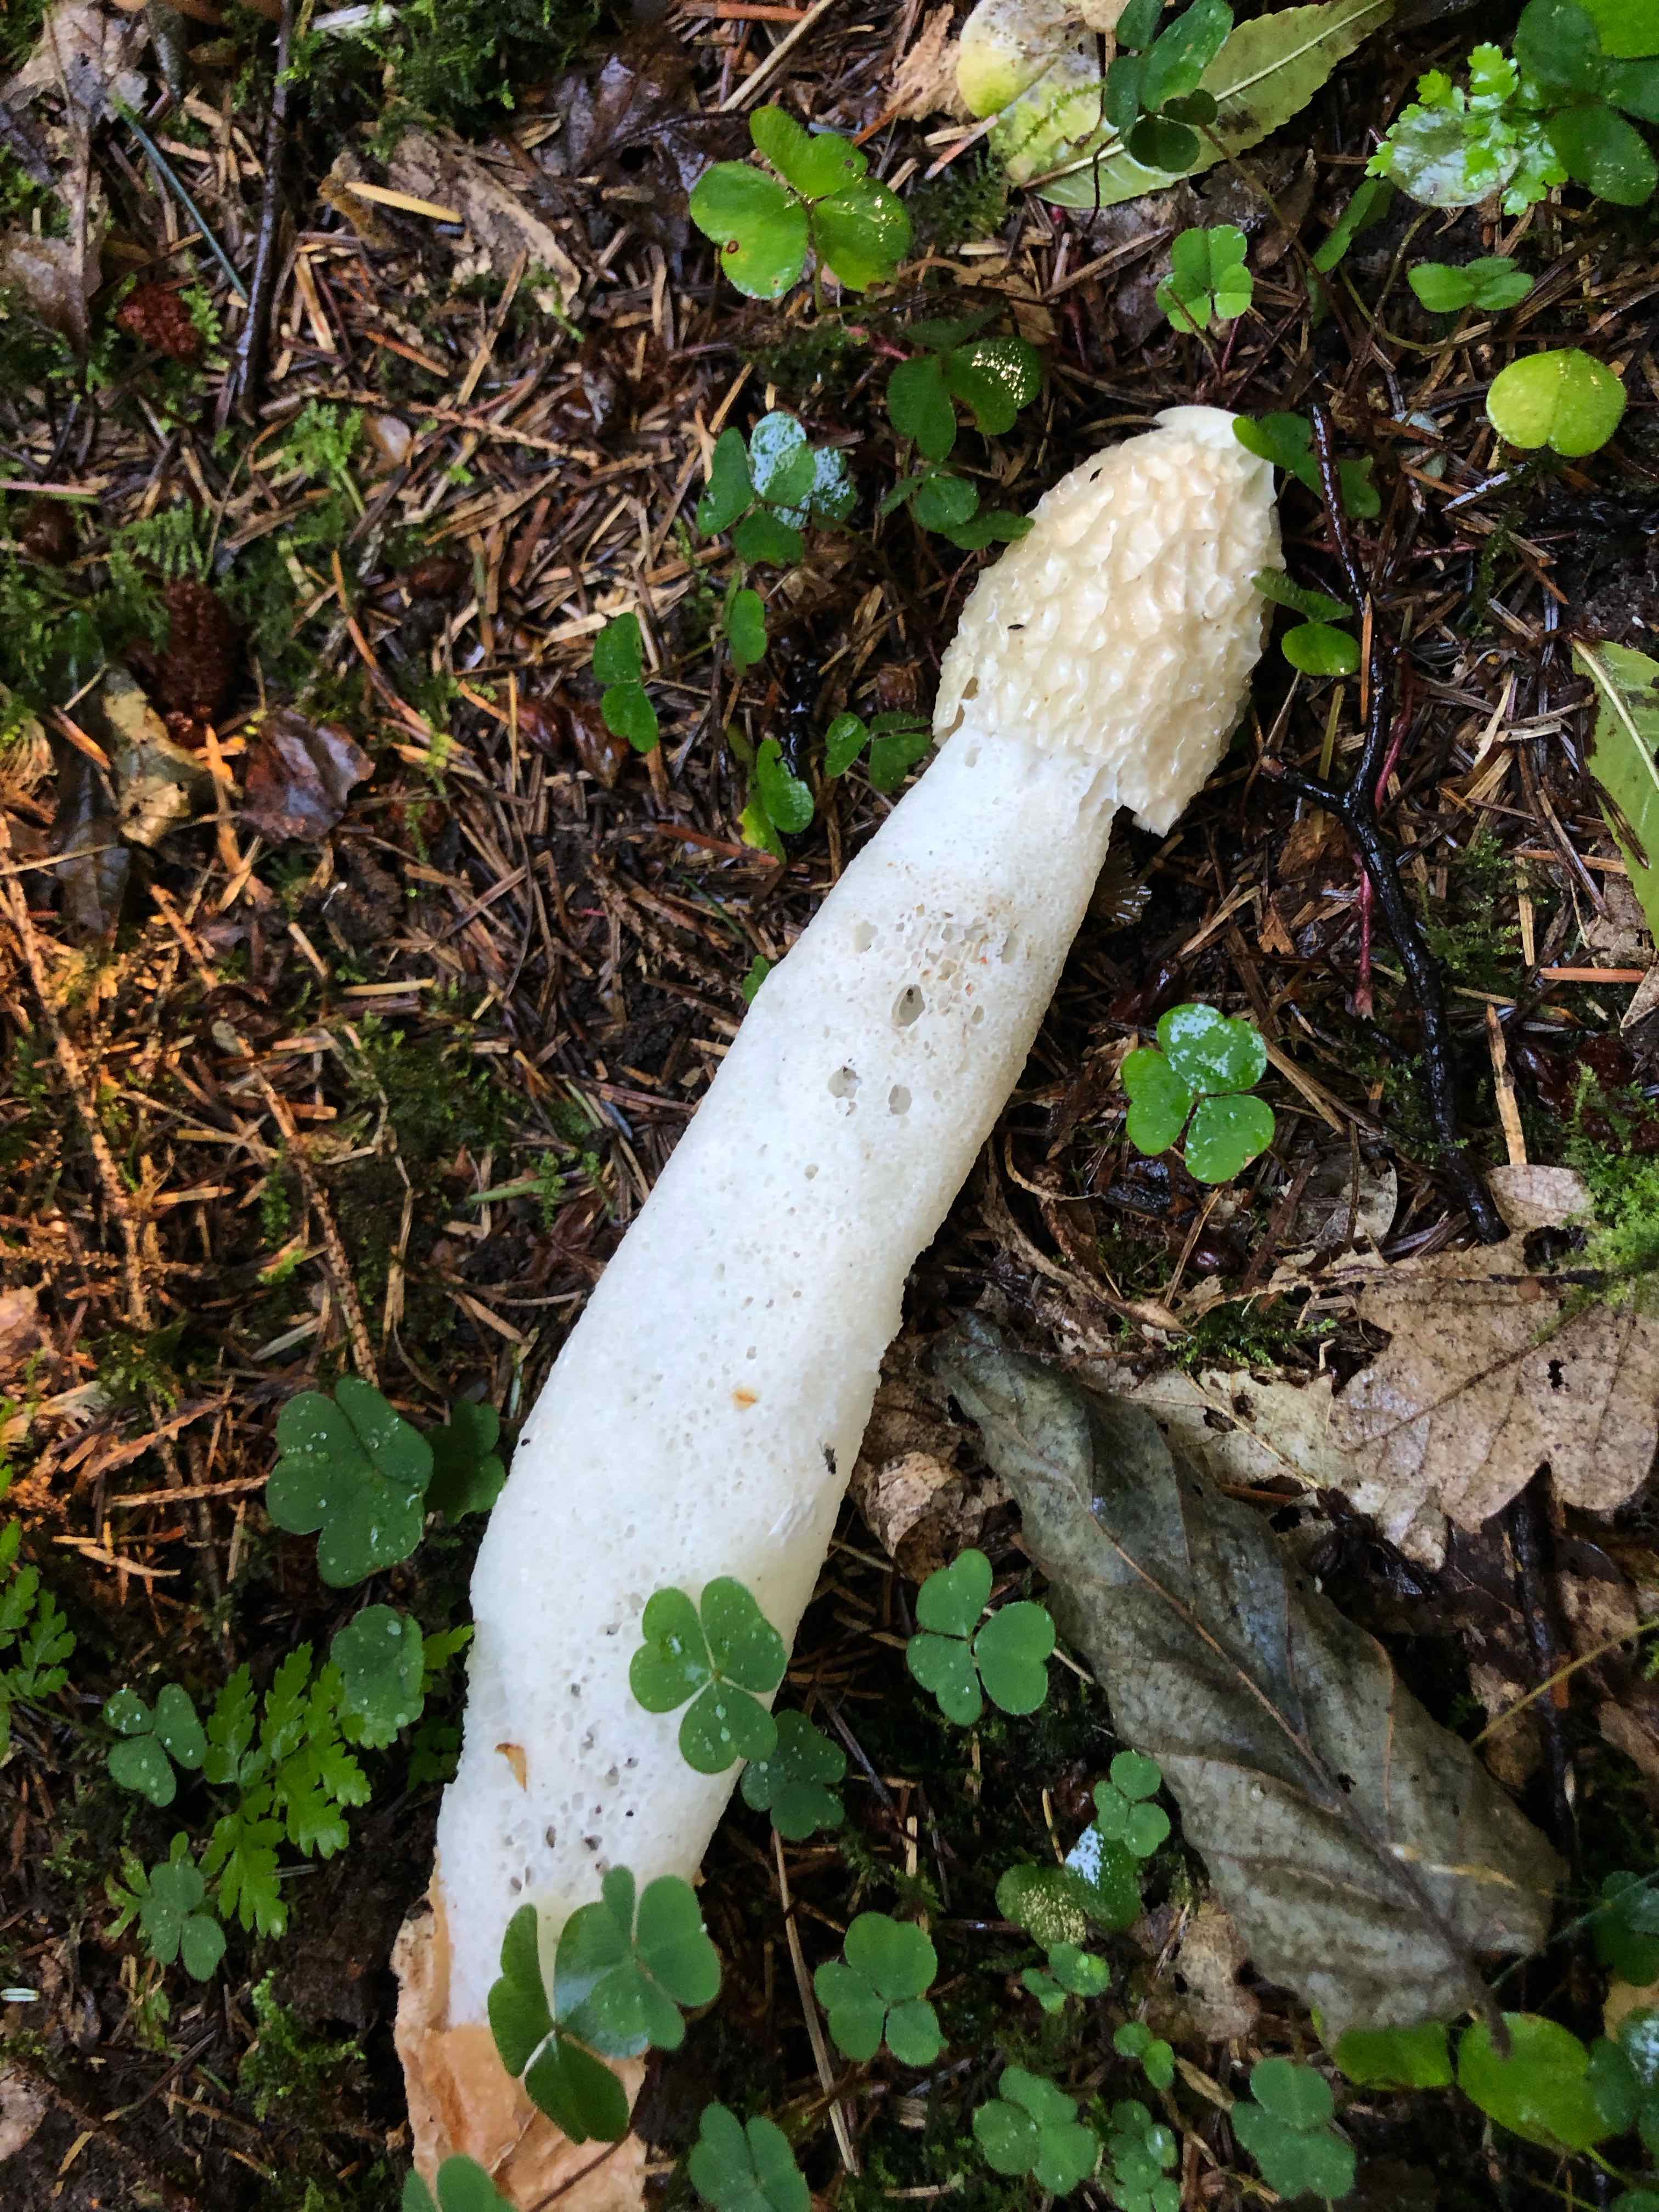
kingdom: Fungi
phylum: Basidiomycota
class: Agaricomycetes
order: Phallales
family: Phallaceae
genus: Phallus
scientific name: Phallus impudicus
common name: almindelig stinksvamp
